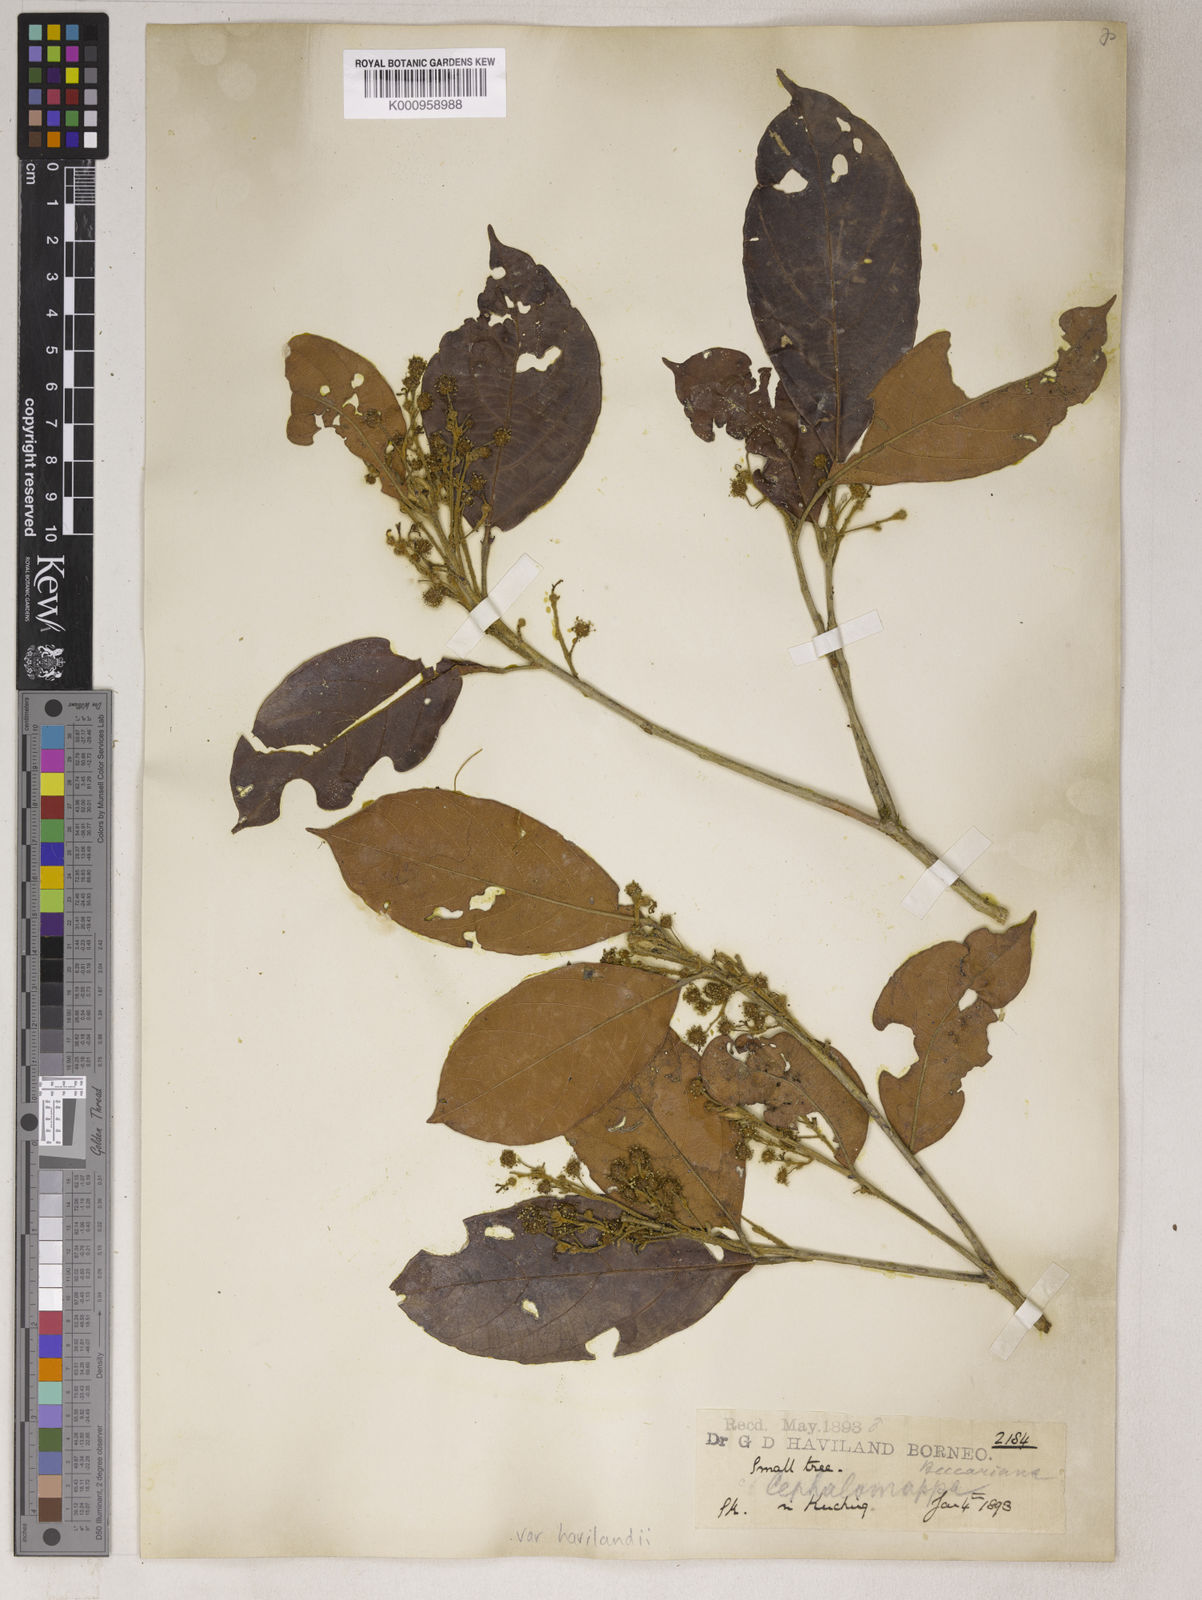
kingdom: Plantae
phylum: Tracheophyta
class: Magnoliopsida
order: Malpighiales
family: Euphorbiaceae
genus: Cephalomappa
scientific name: Cephalomappa beccariana
